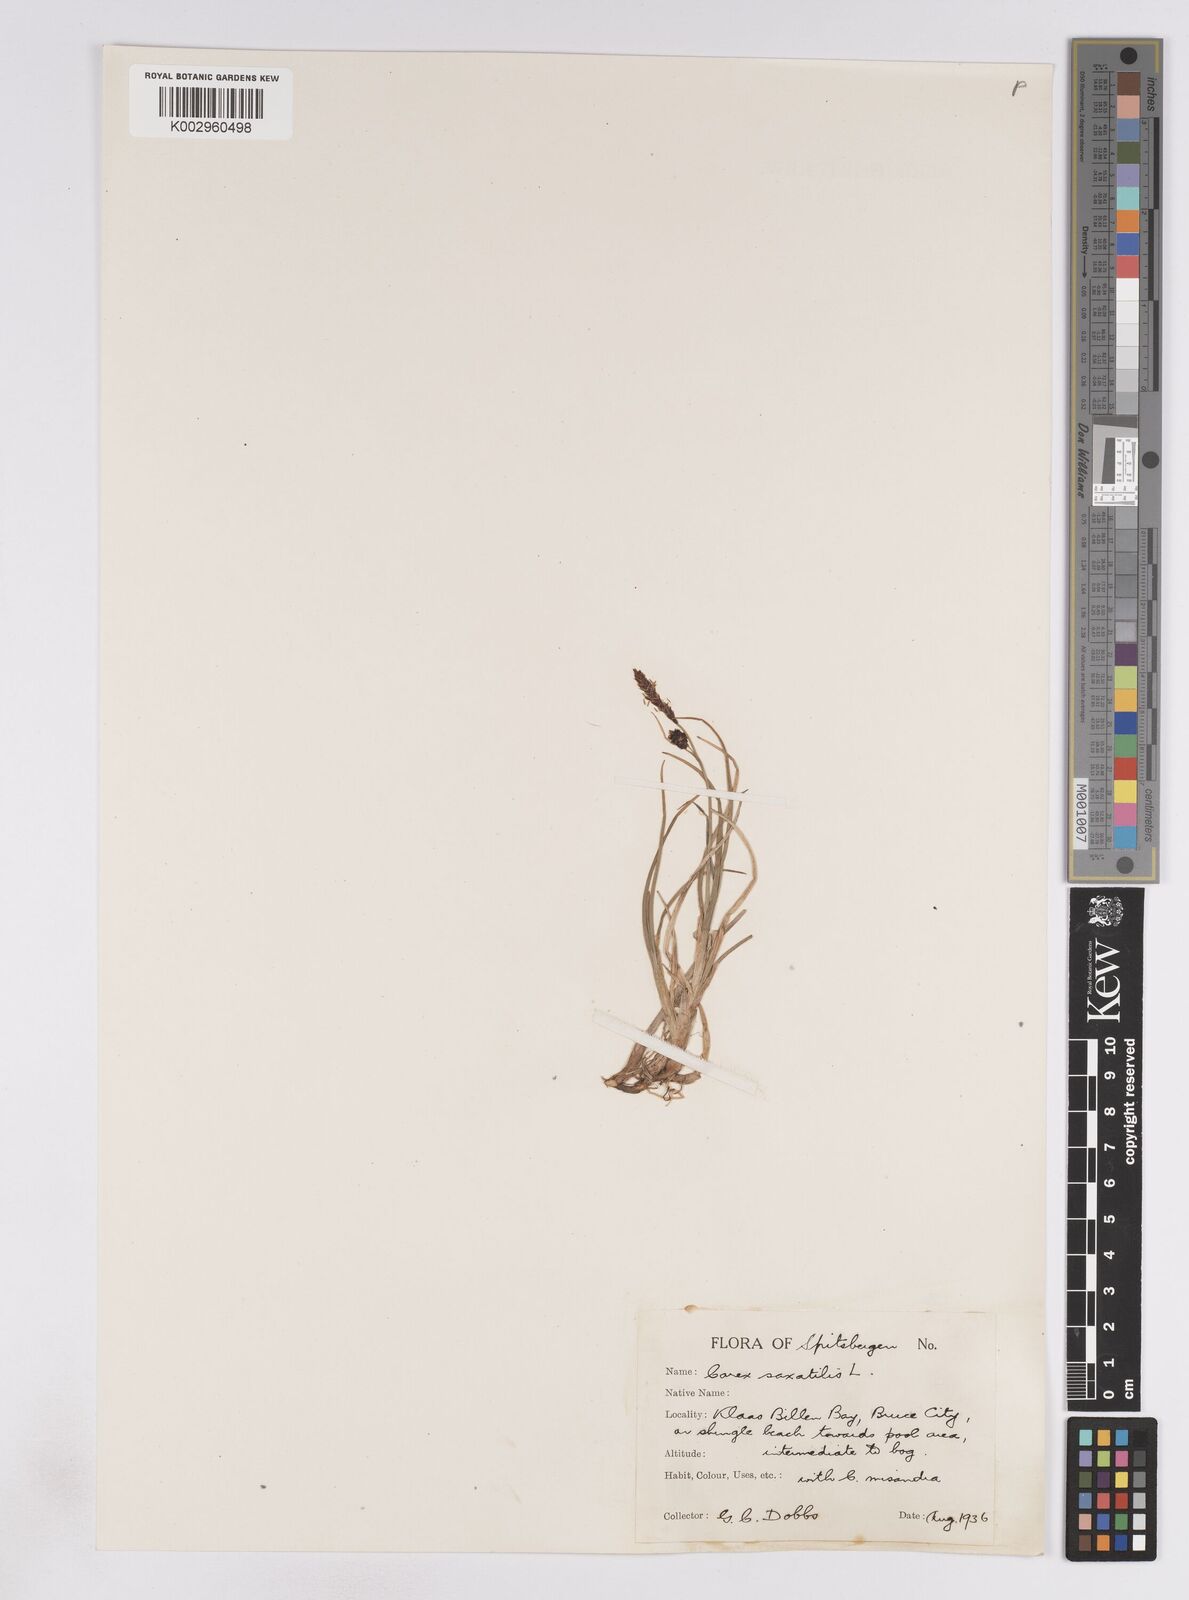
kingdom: Plantae
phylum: Tracheophyta
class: Liliopsida
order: Poales
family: Cyperaceae
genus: Carex
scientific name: Carex saxatilis
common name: Russet sedge
